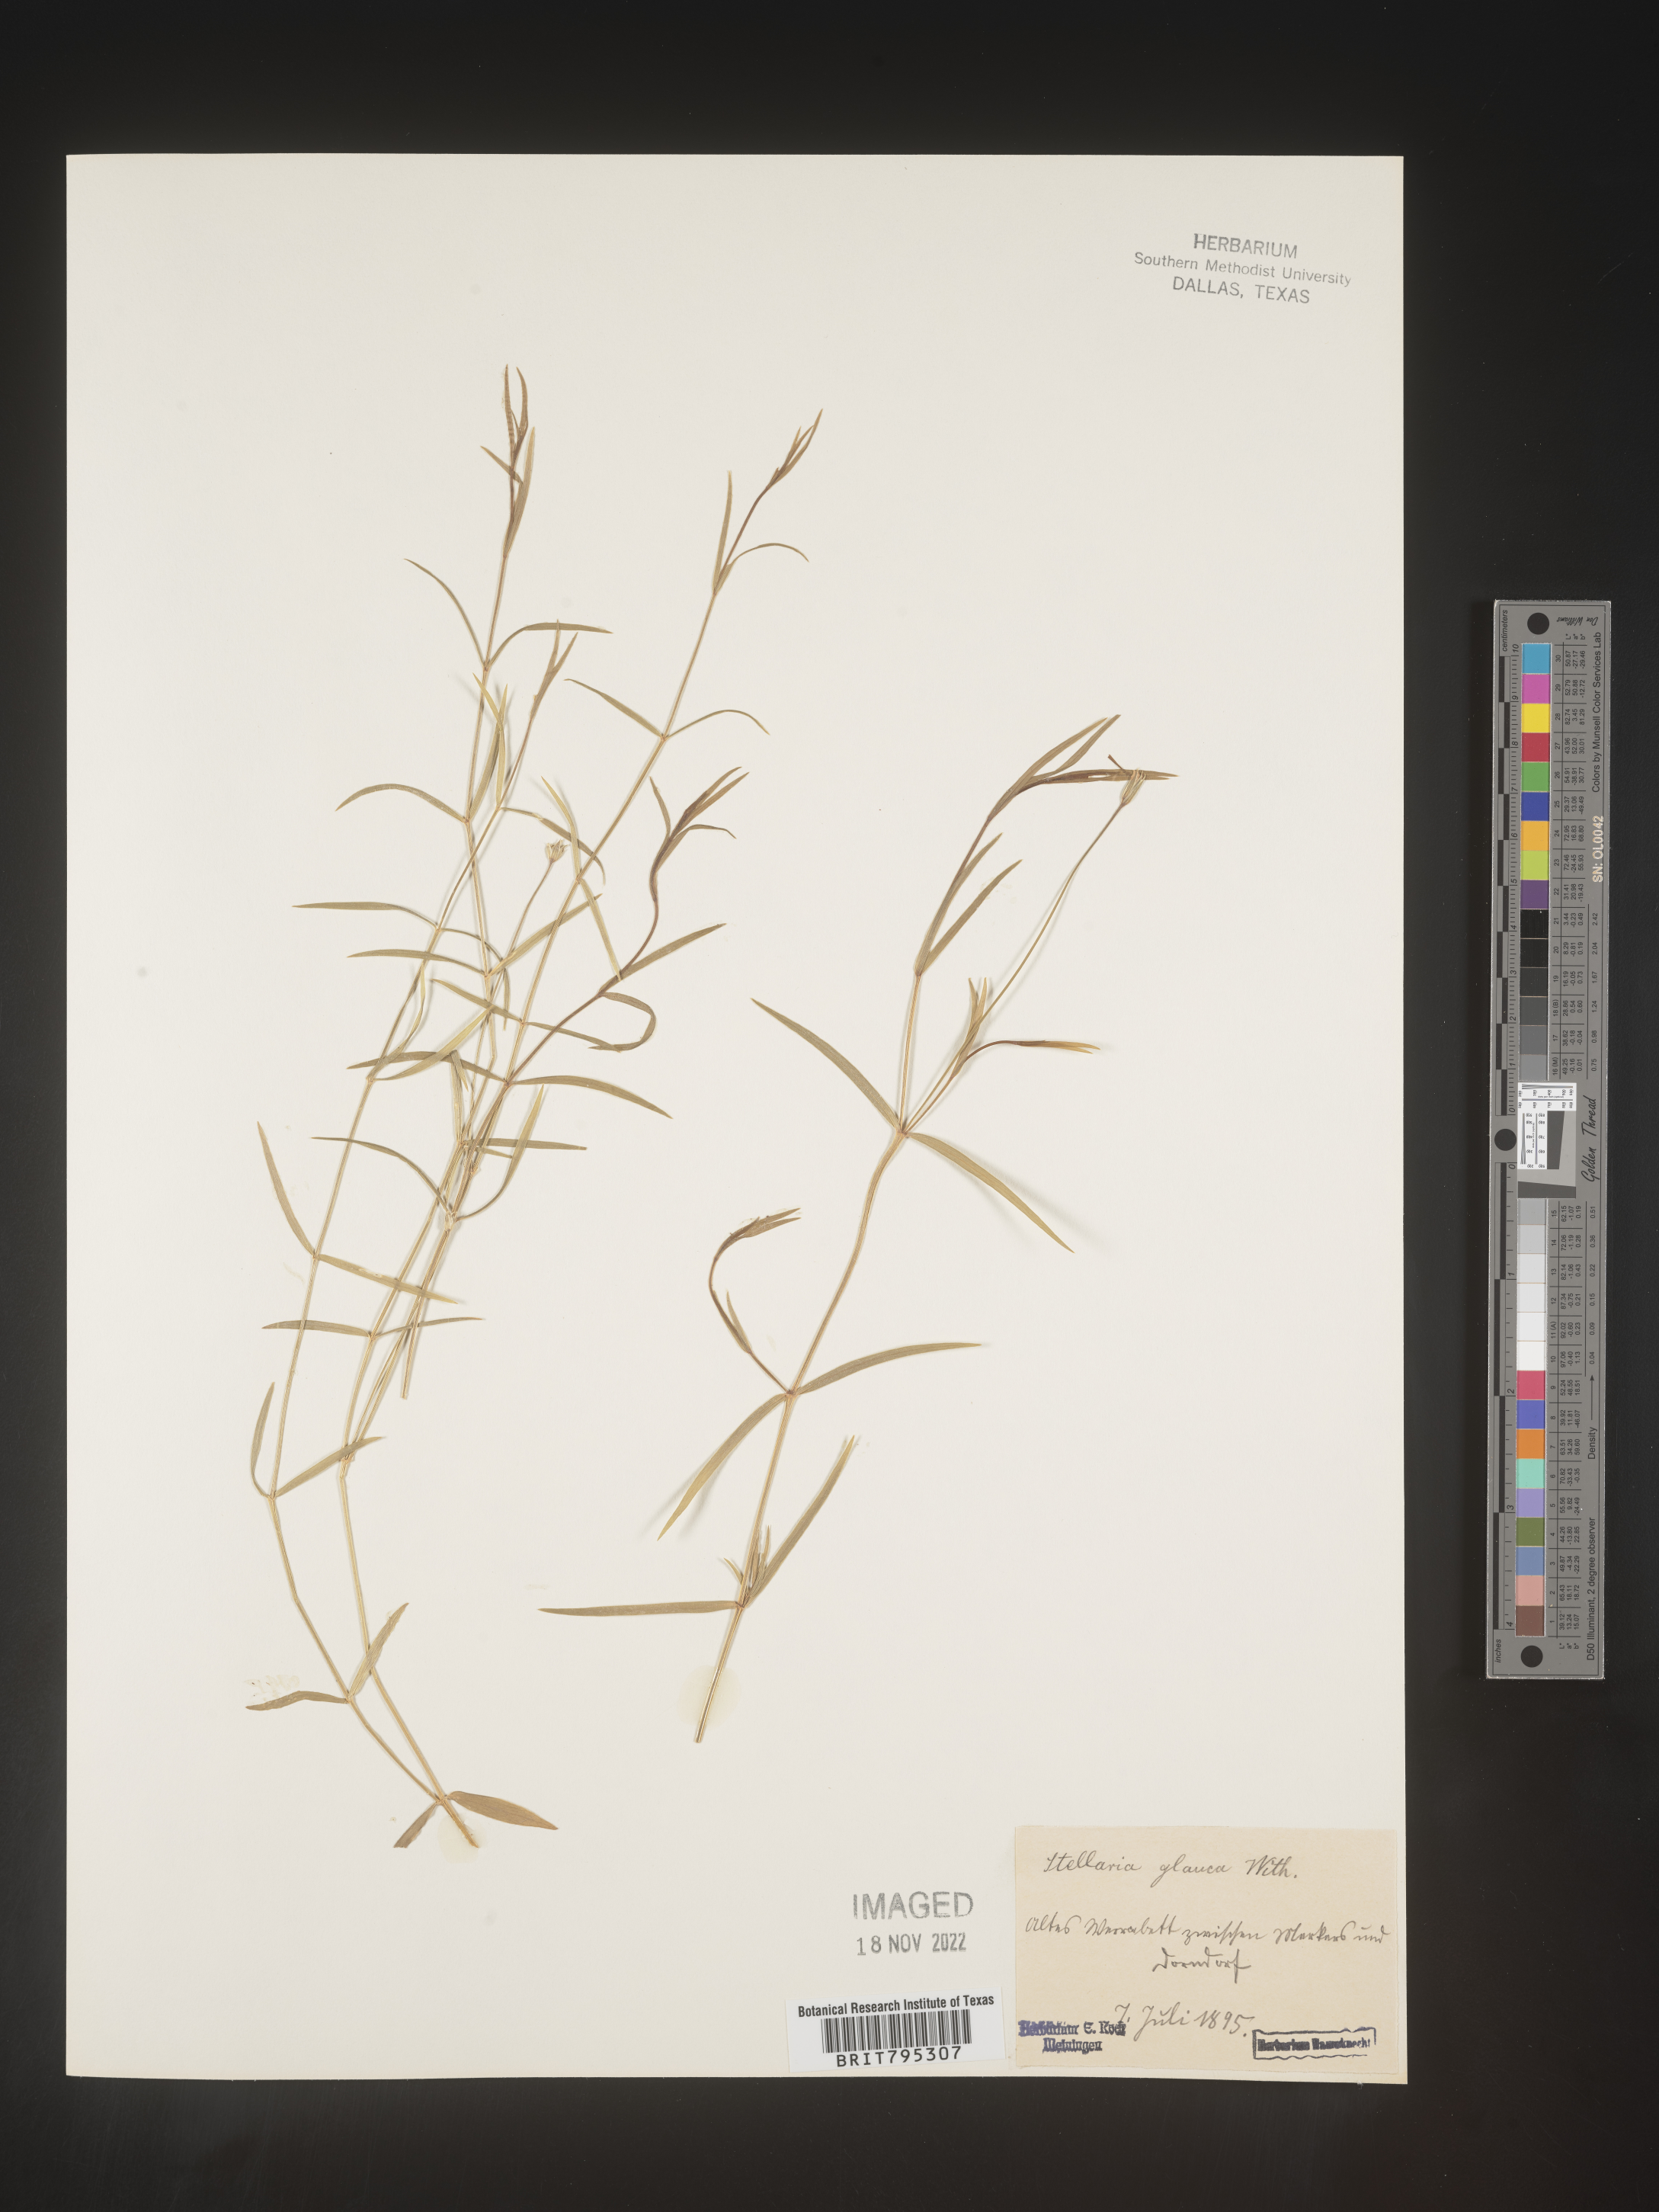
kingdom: Plantae
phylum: Tracheophyta
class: Magnoliopsida
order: Caryophyllales
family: Caryophyllaceae
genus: Stellaria
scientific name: Stellaria
